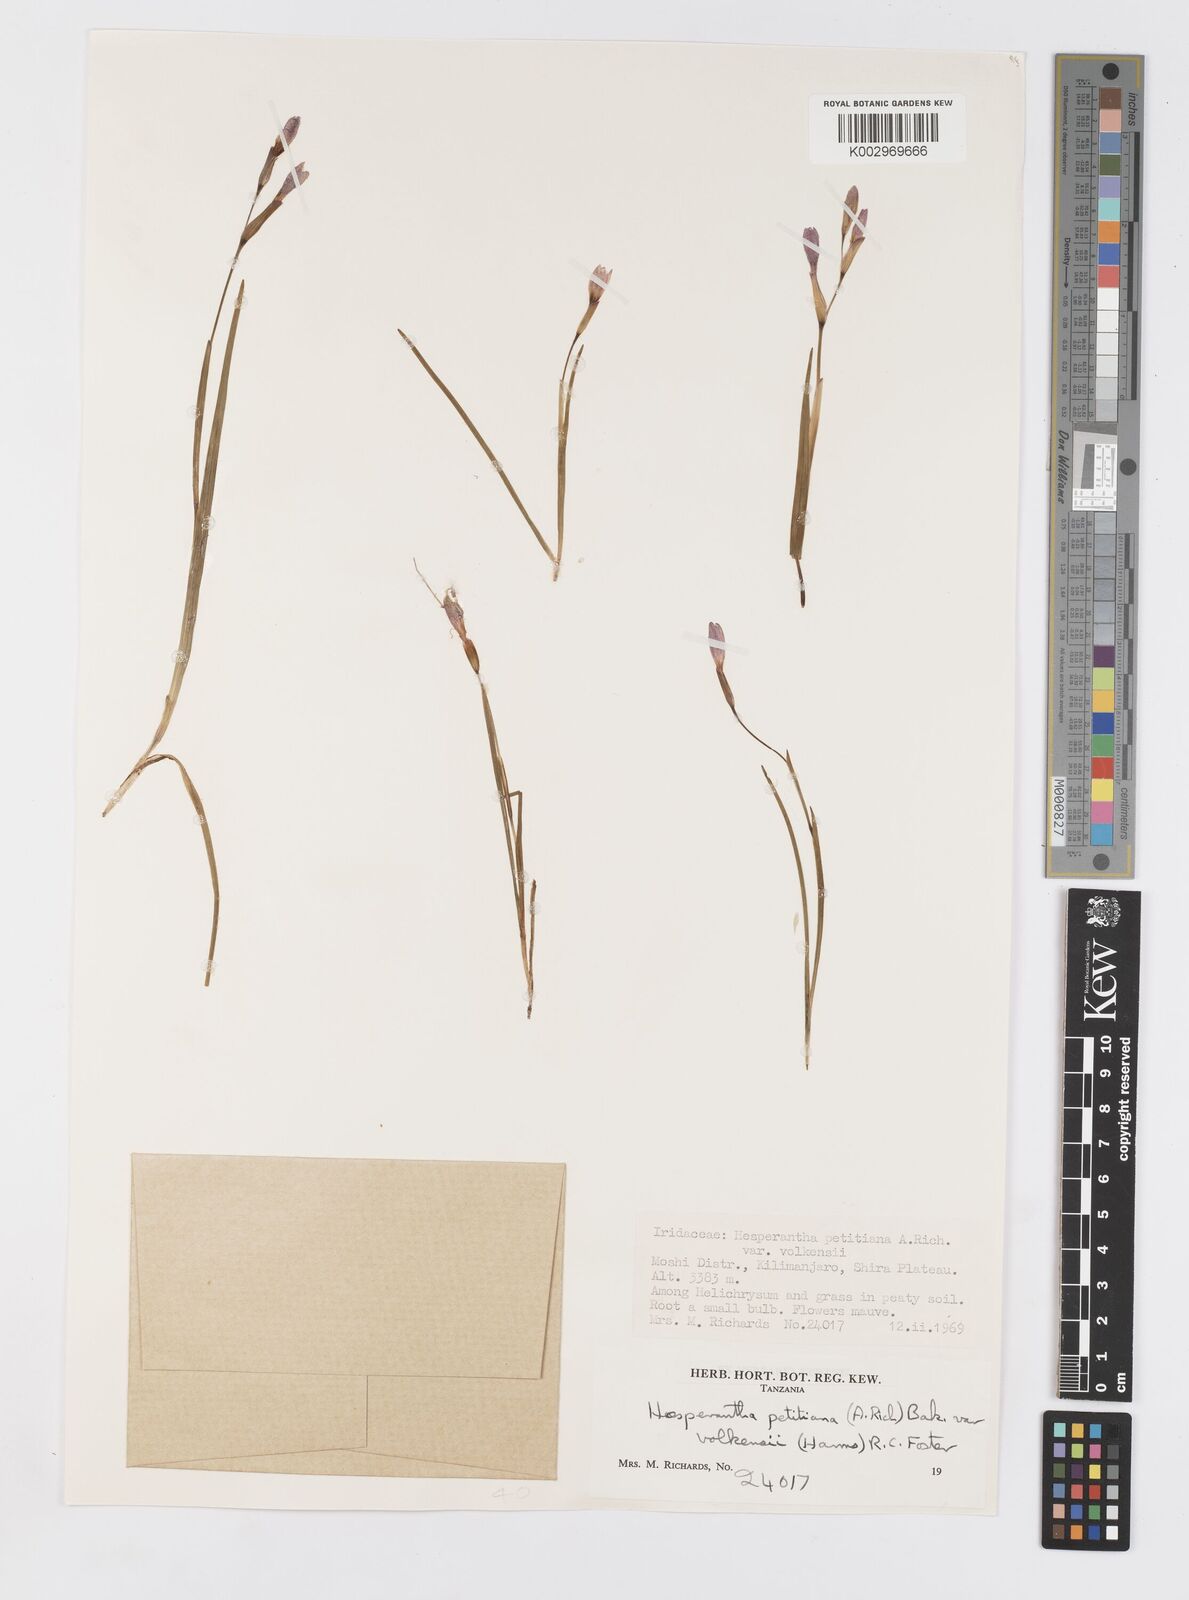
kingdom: Plantae
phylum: Tracheophyta
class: Liliopsida
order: Asparagales
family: Iridaceae
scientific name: Iridaceae
